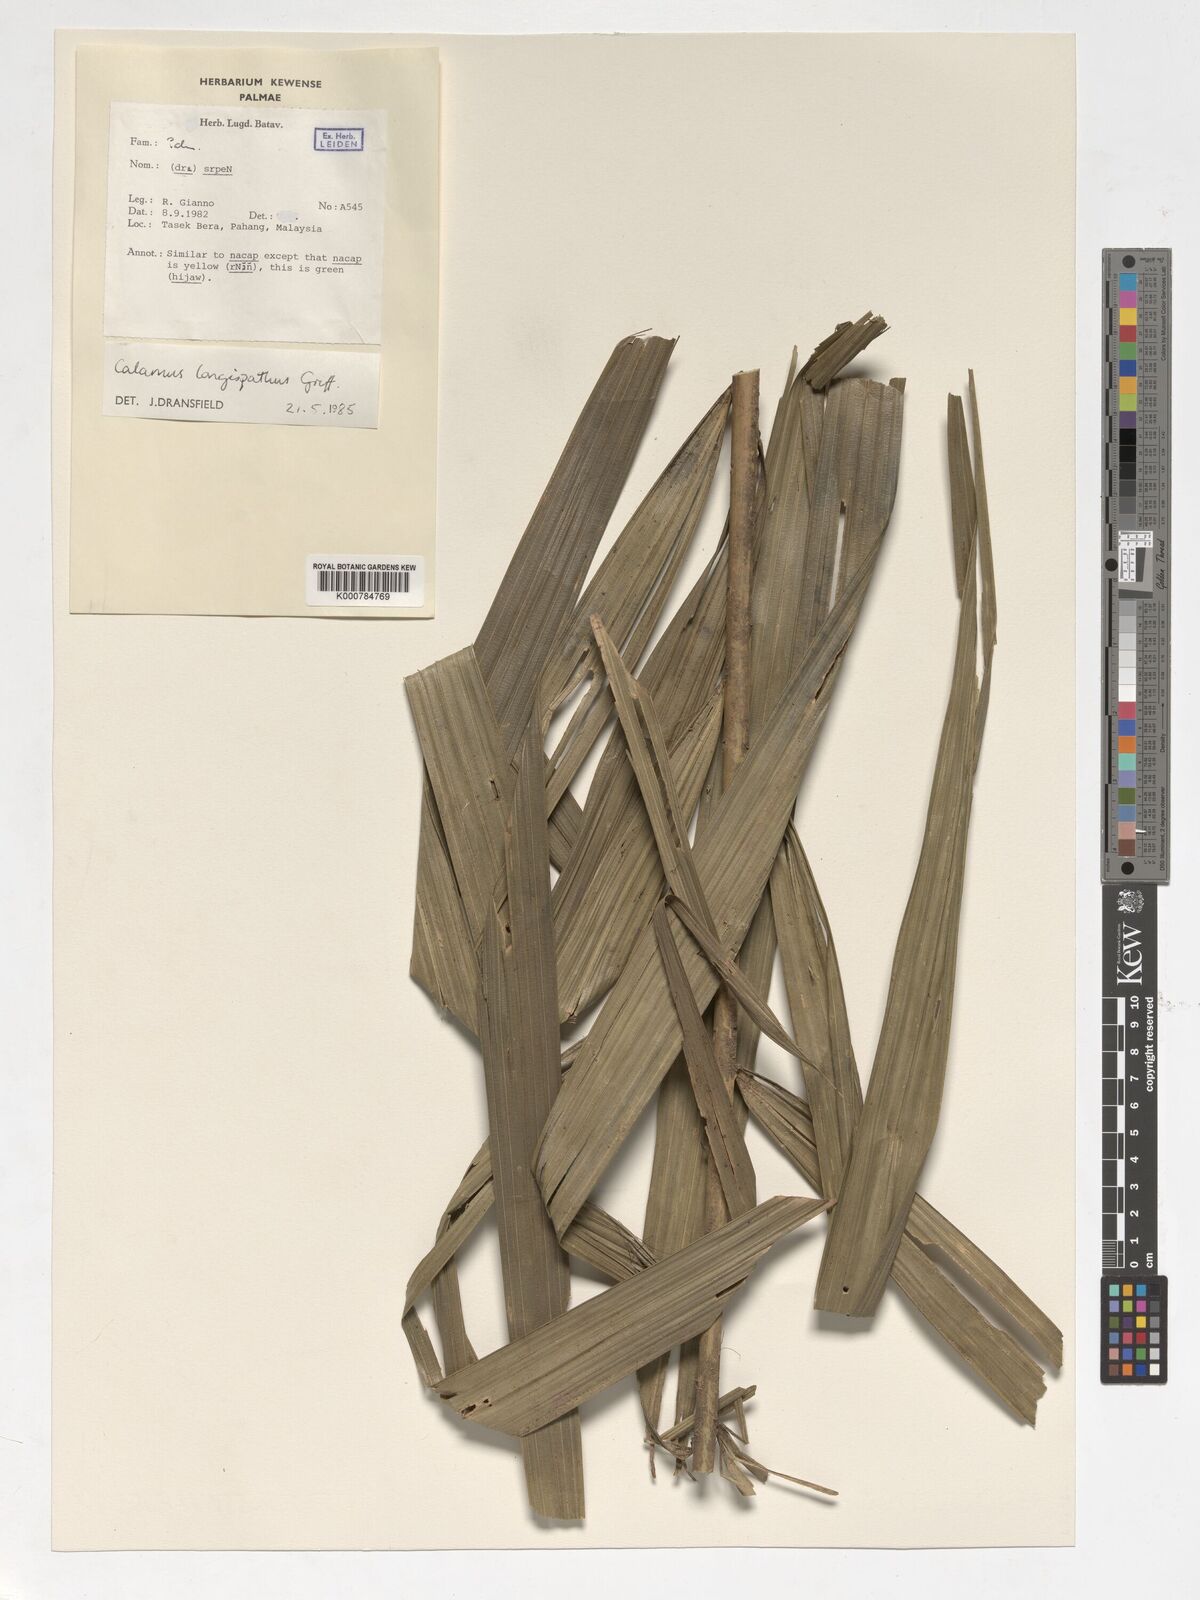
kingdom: Plantae
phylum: Tracheophyta
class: Liliopsida
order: Arecales
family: Arecaceae
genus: Calamus
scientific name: Calamus longispatha
